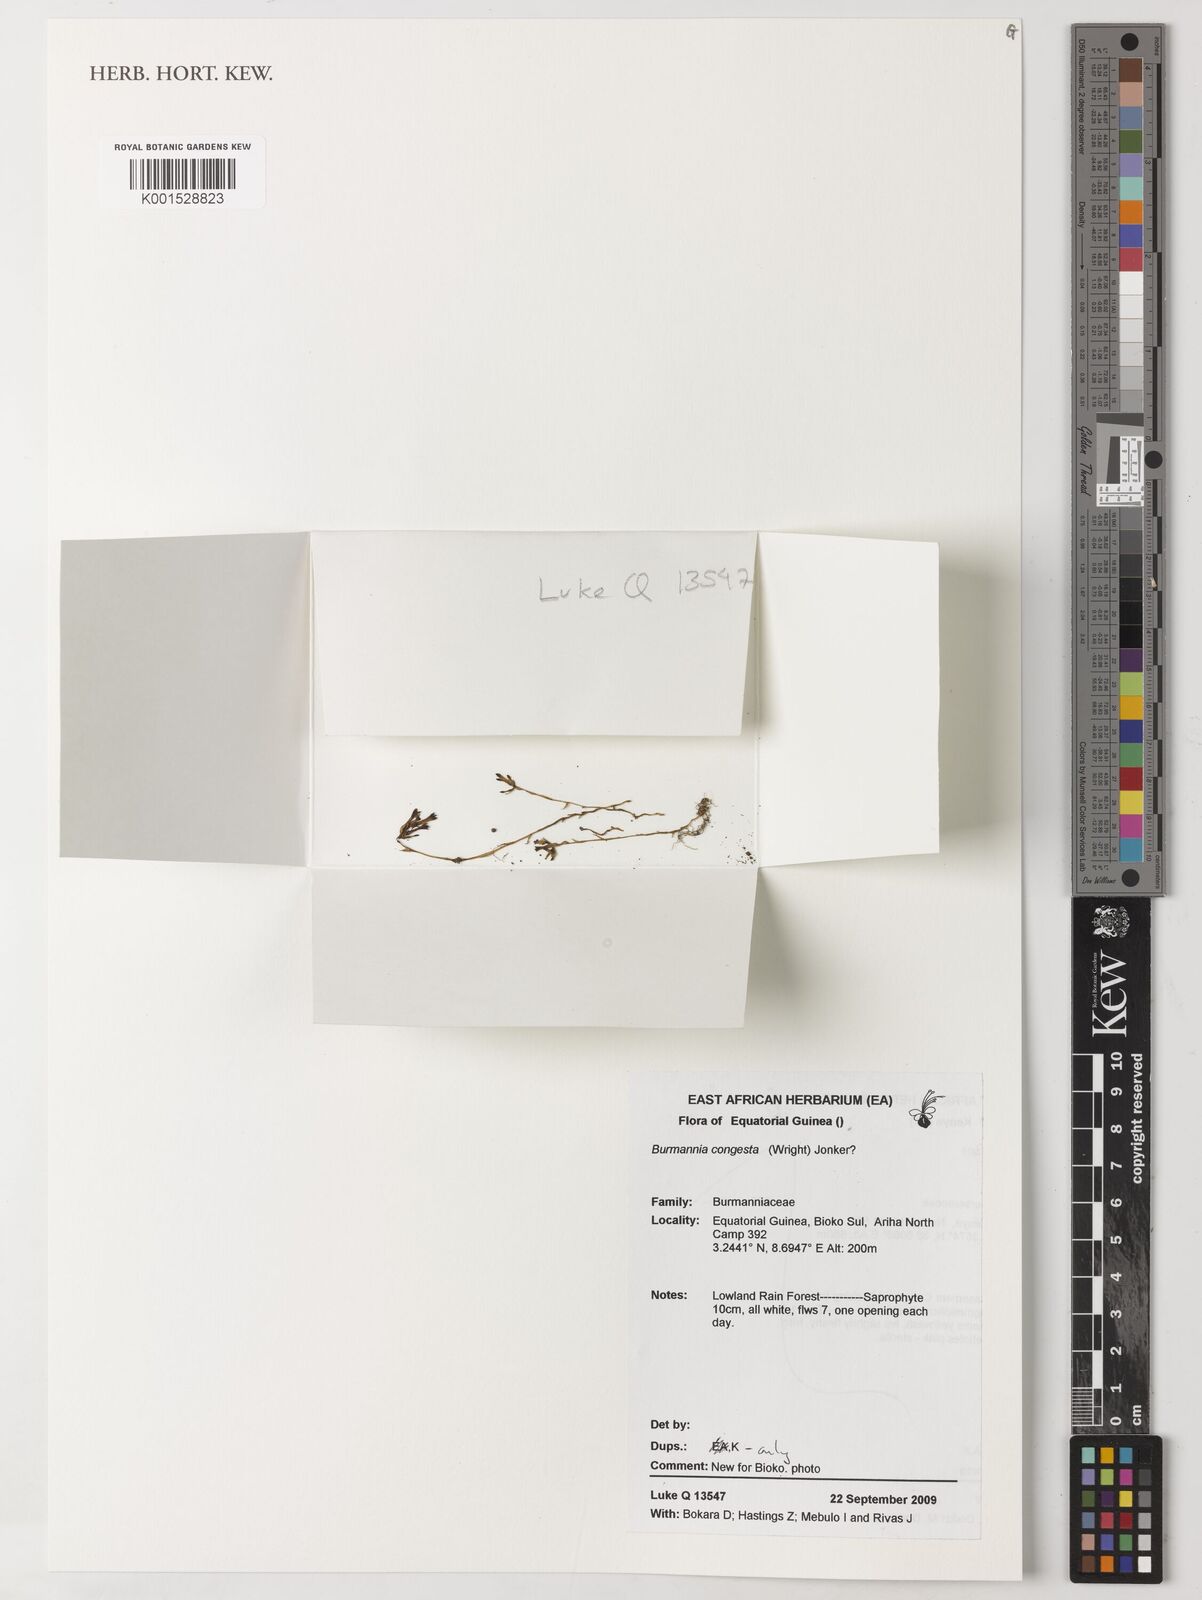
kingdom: Plantae
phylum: Tracheophyta
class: Liliopsida
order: Dioscoreales
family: Burmanniaceae
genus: Campylosiphon
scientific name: Campylosiphon congestus
